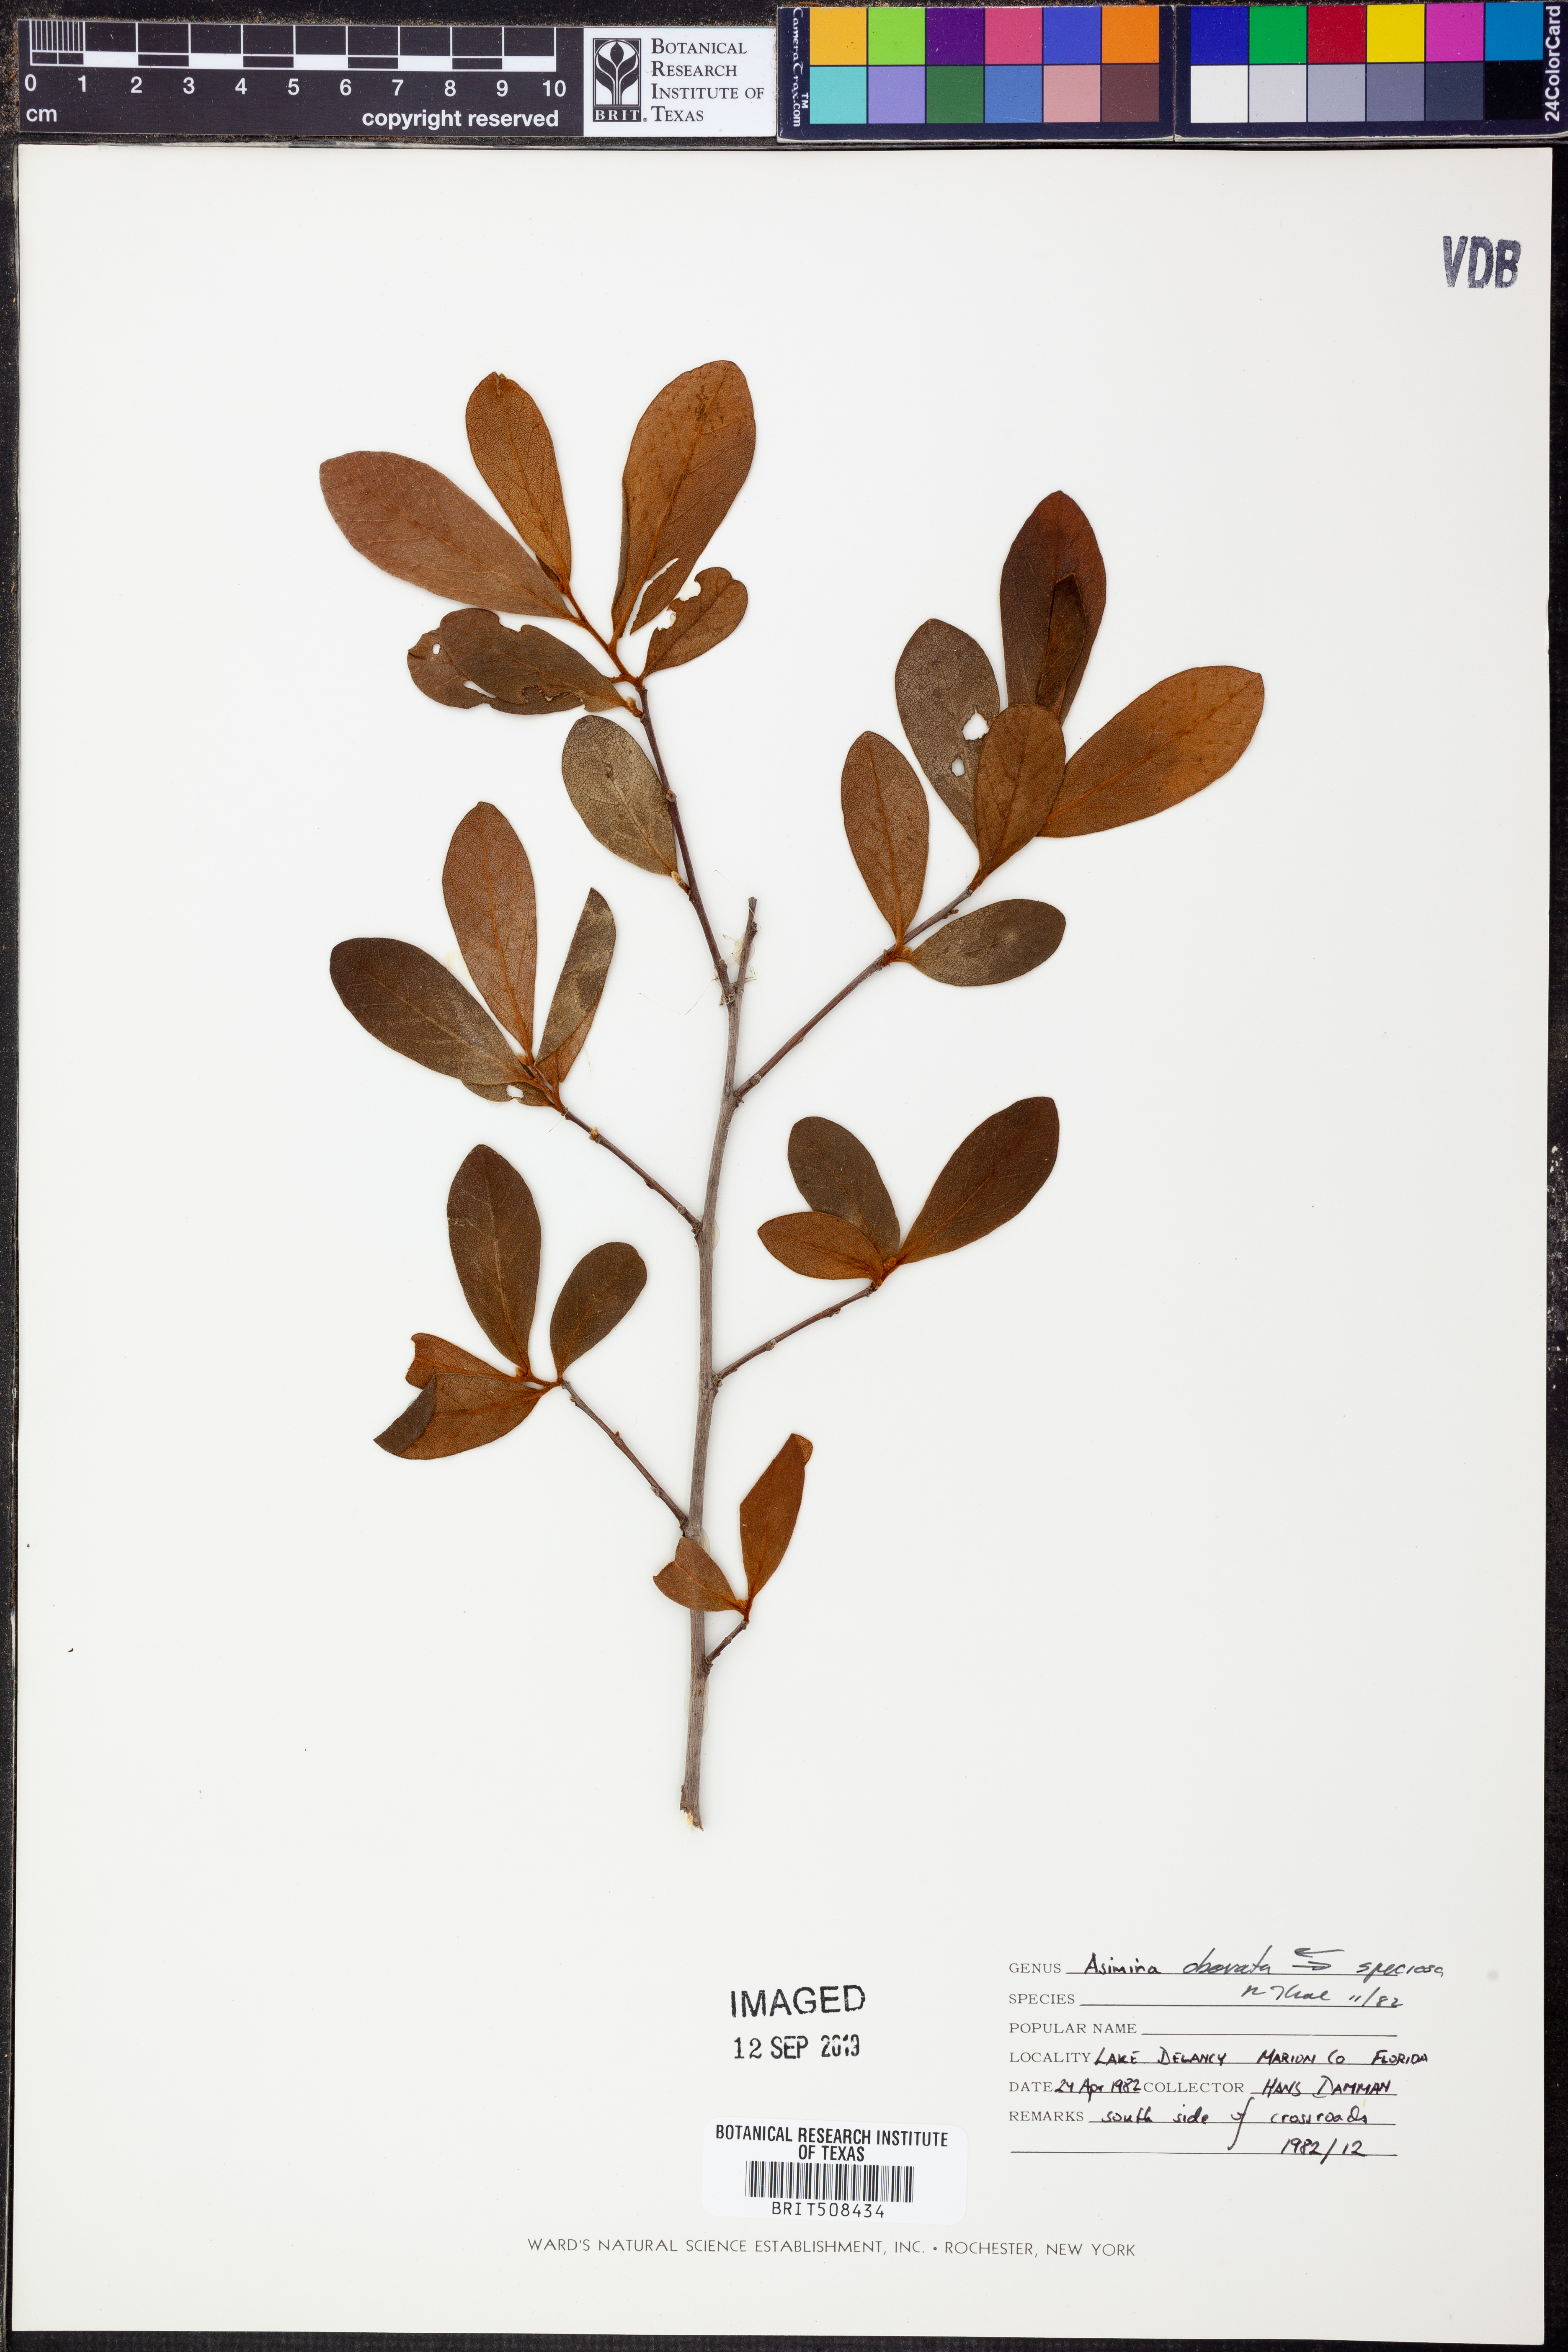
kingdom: Plantae
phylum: Tracheophyta
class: Magnoliopsida
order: Magnoliales
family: Annonaceae
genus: Asimina
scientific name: Asimina obovata
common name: Flag pawpaw
